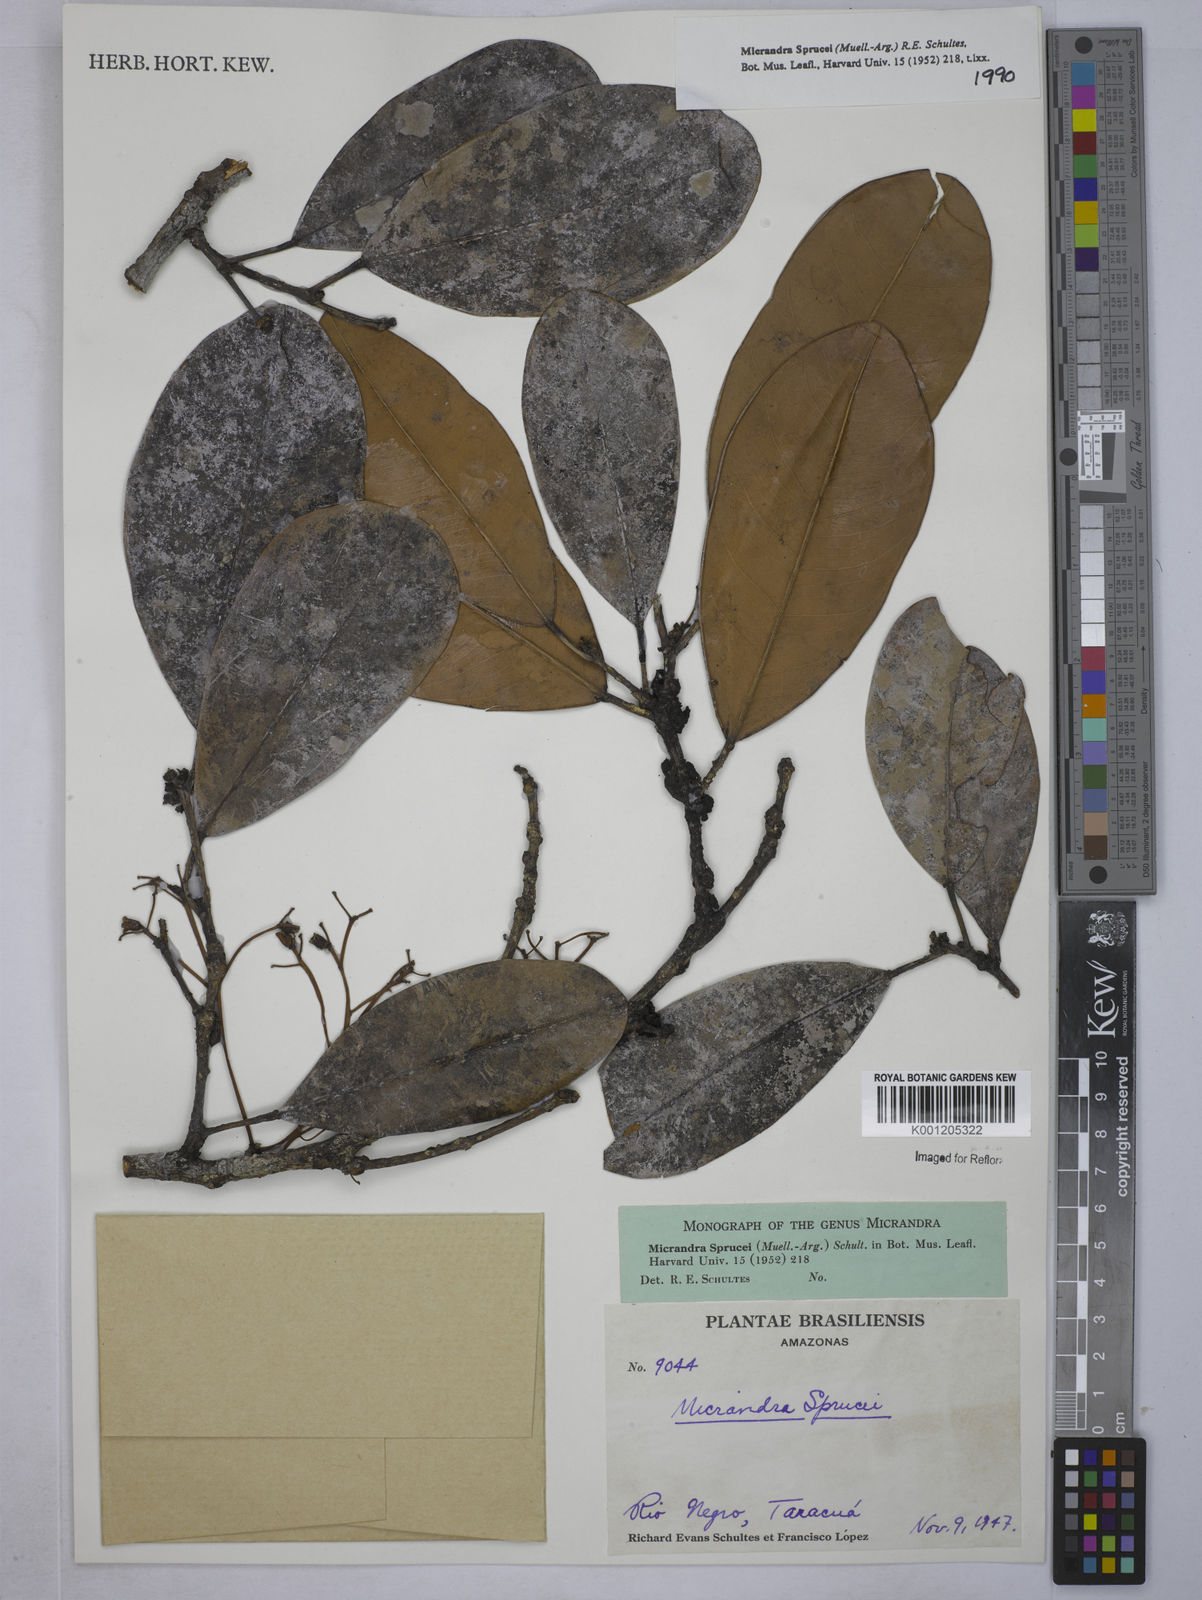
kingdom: Plantae
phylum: Tracheophyta
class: Magnoliopsida
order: Malpighiales
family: Euphorbiaceae
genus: Micrandra
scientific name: Micrandra spruceana
